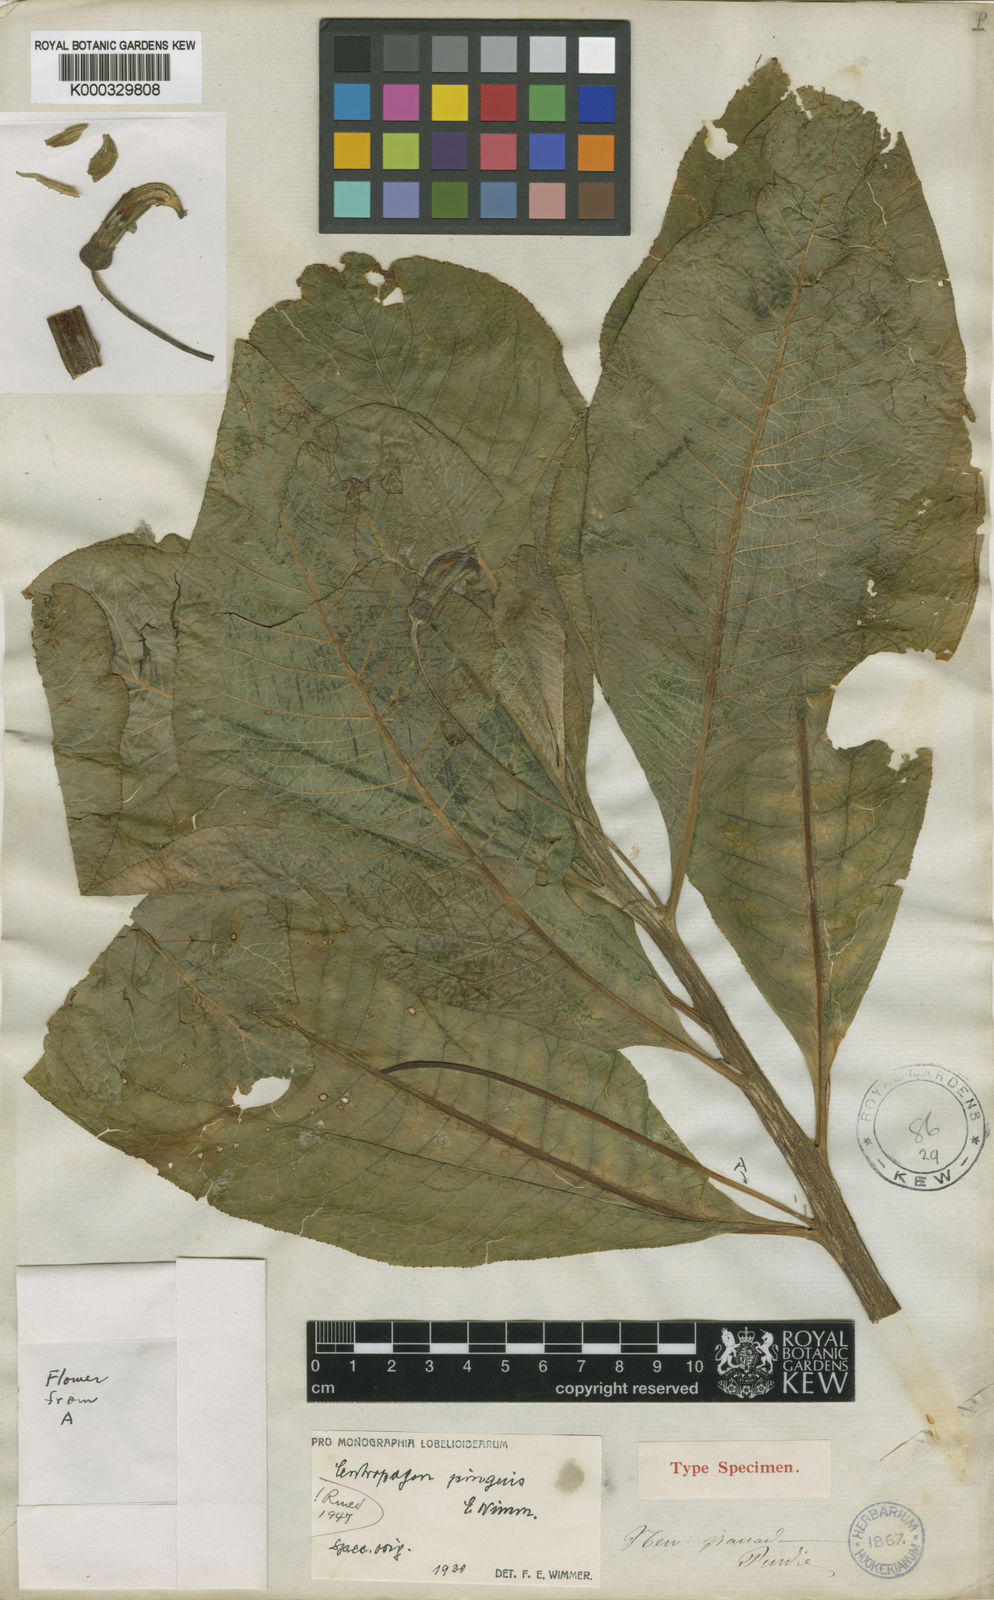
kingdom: Plantae
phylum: Tracheophyta
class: Magnoliopsida
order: Asterales
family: Campanulaceae
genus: Centropogon
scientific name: Centropogon pinguis
